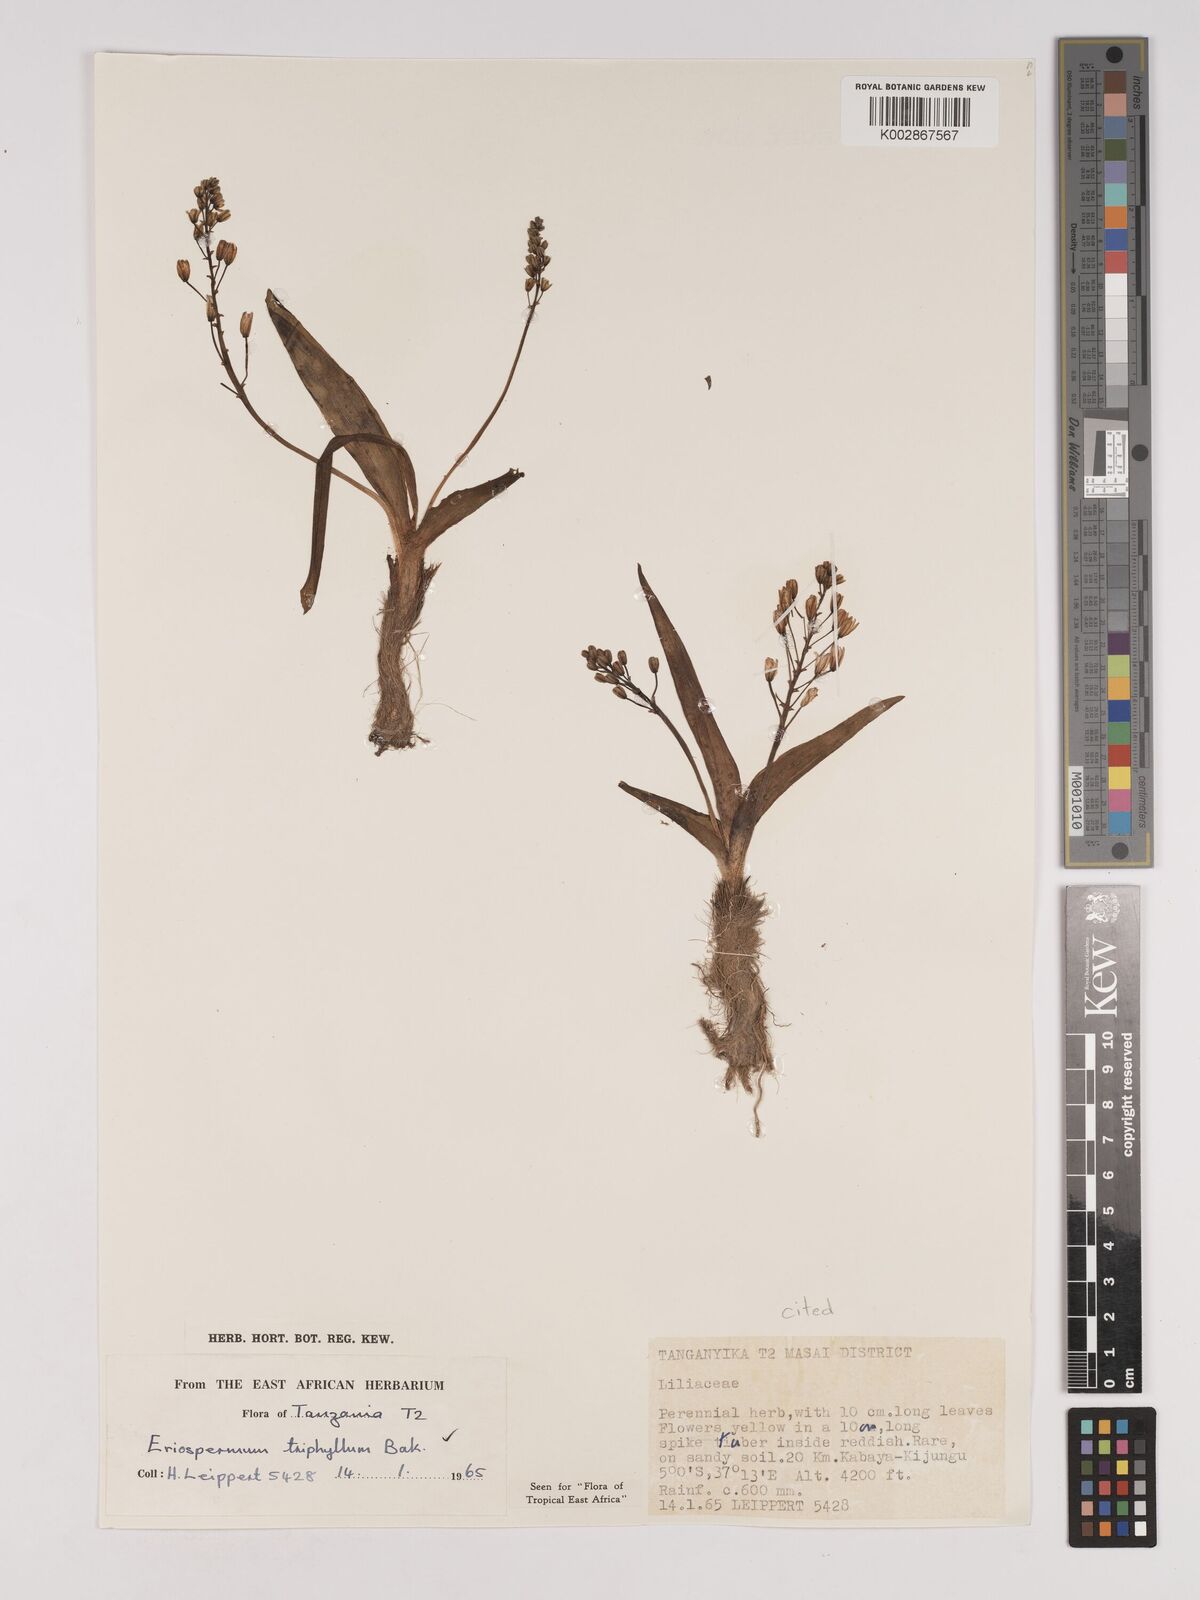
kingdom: Plantae
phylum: Tracheophyta
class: Liliopsida
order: Asparagales
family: Asparagaceae
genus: Eriospermum
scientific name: Eriospermum triphyllum
